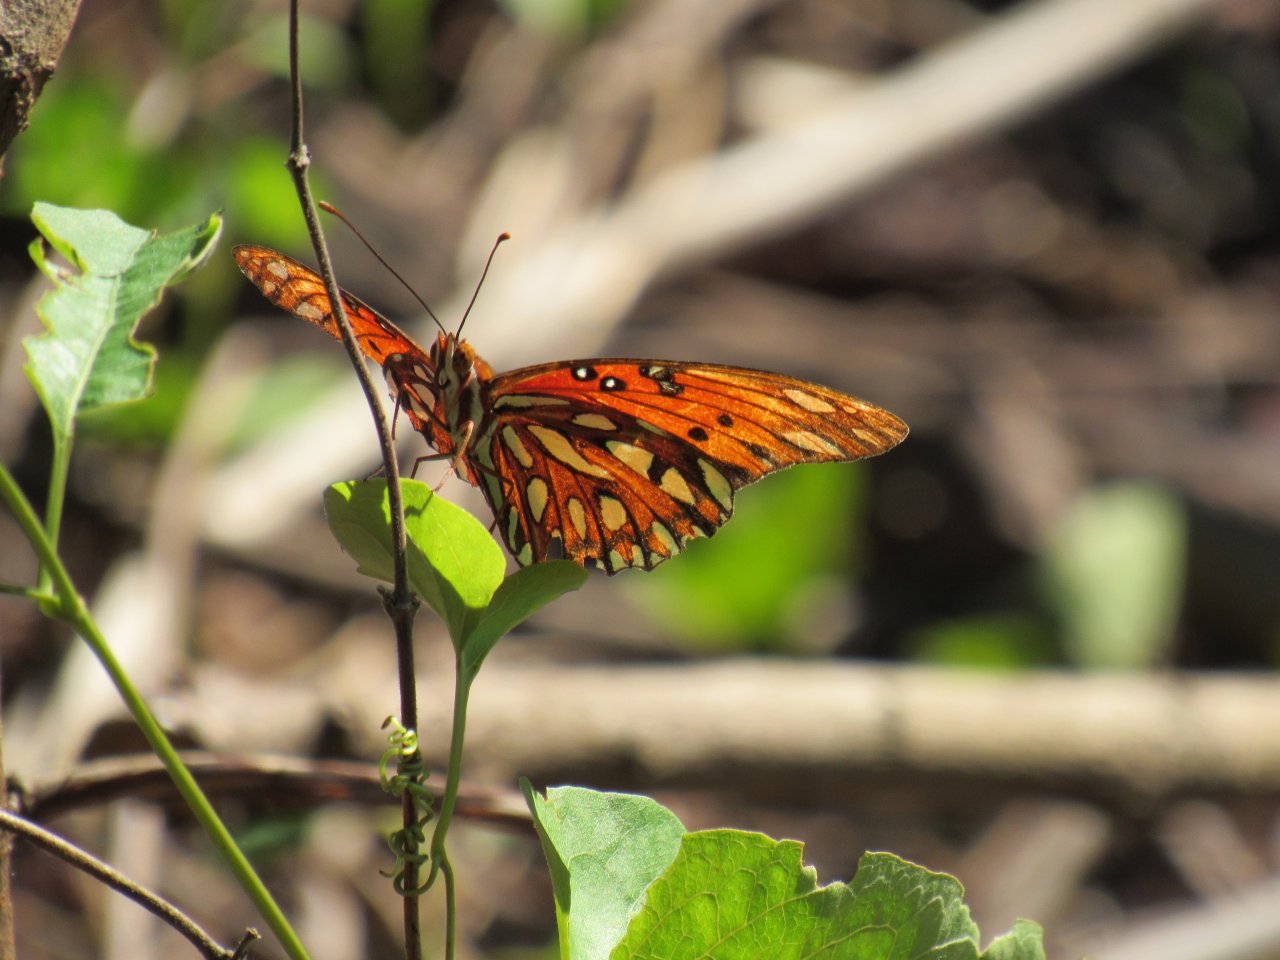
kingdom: Animalia
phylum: Arthropoda
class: Insecta
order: Lepidoptera
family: Nymphalidae
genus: Dione
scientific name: Dione vanillae
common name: Gulf Fritillary
